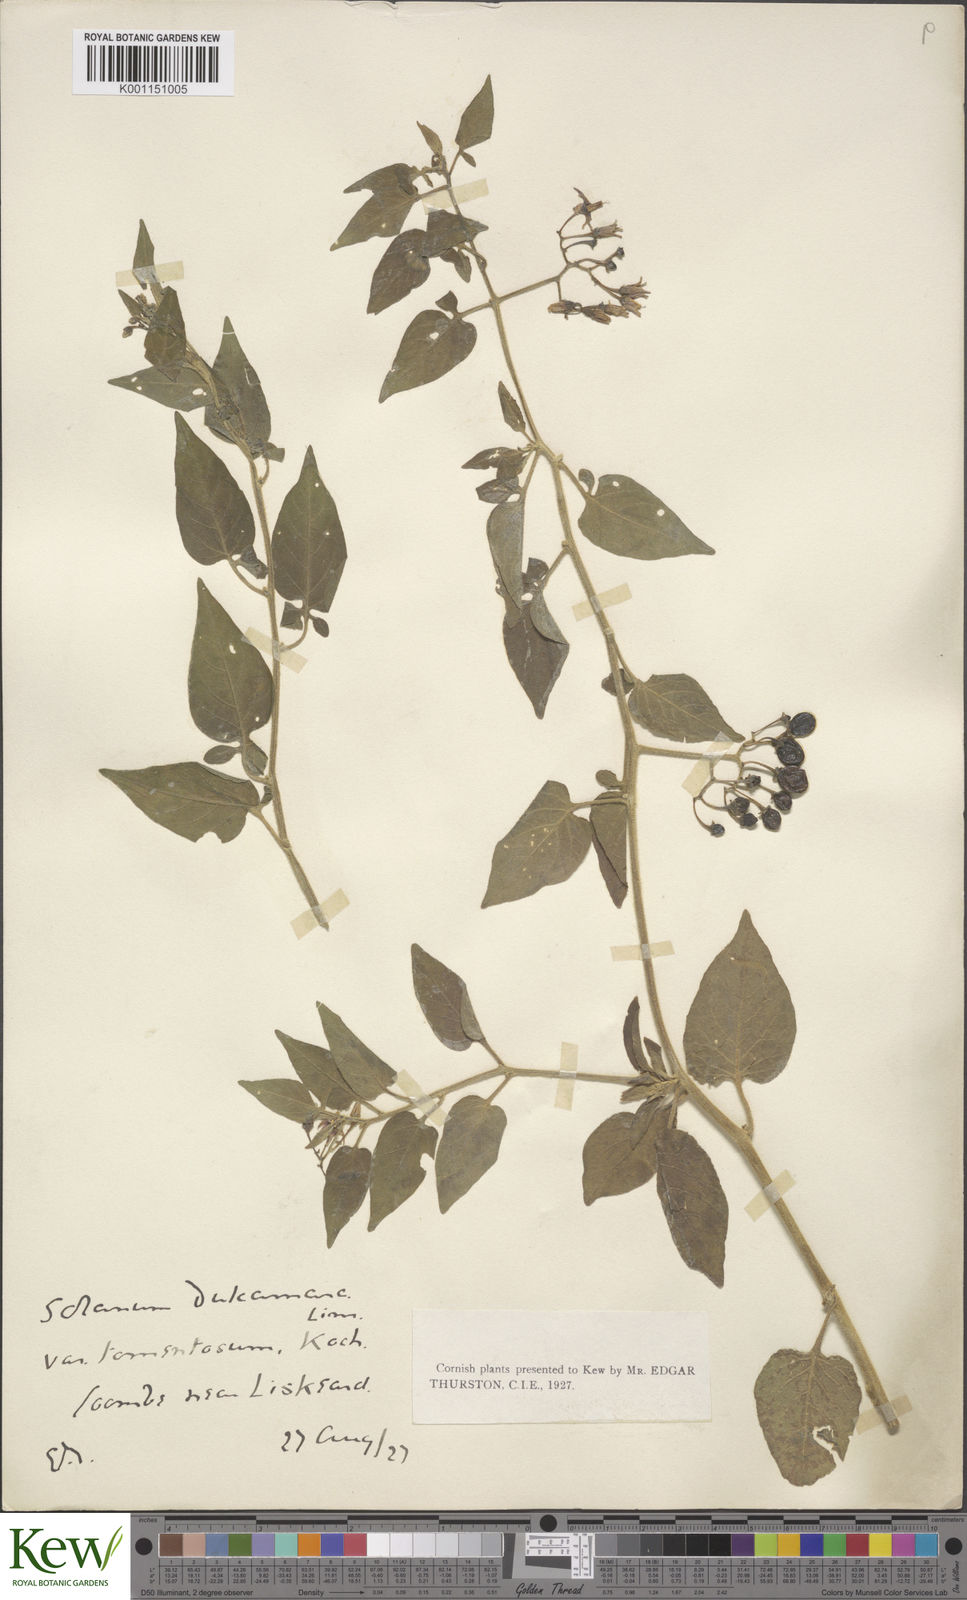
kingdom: Plantae
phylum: Tracheophyta
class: Magnoliopsida
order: Solanales
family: Solanaceae
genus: Solanum
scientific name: Solanum dulcamara
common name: Climbing nightshade
